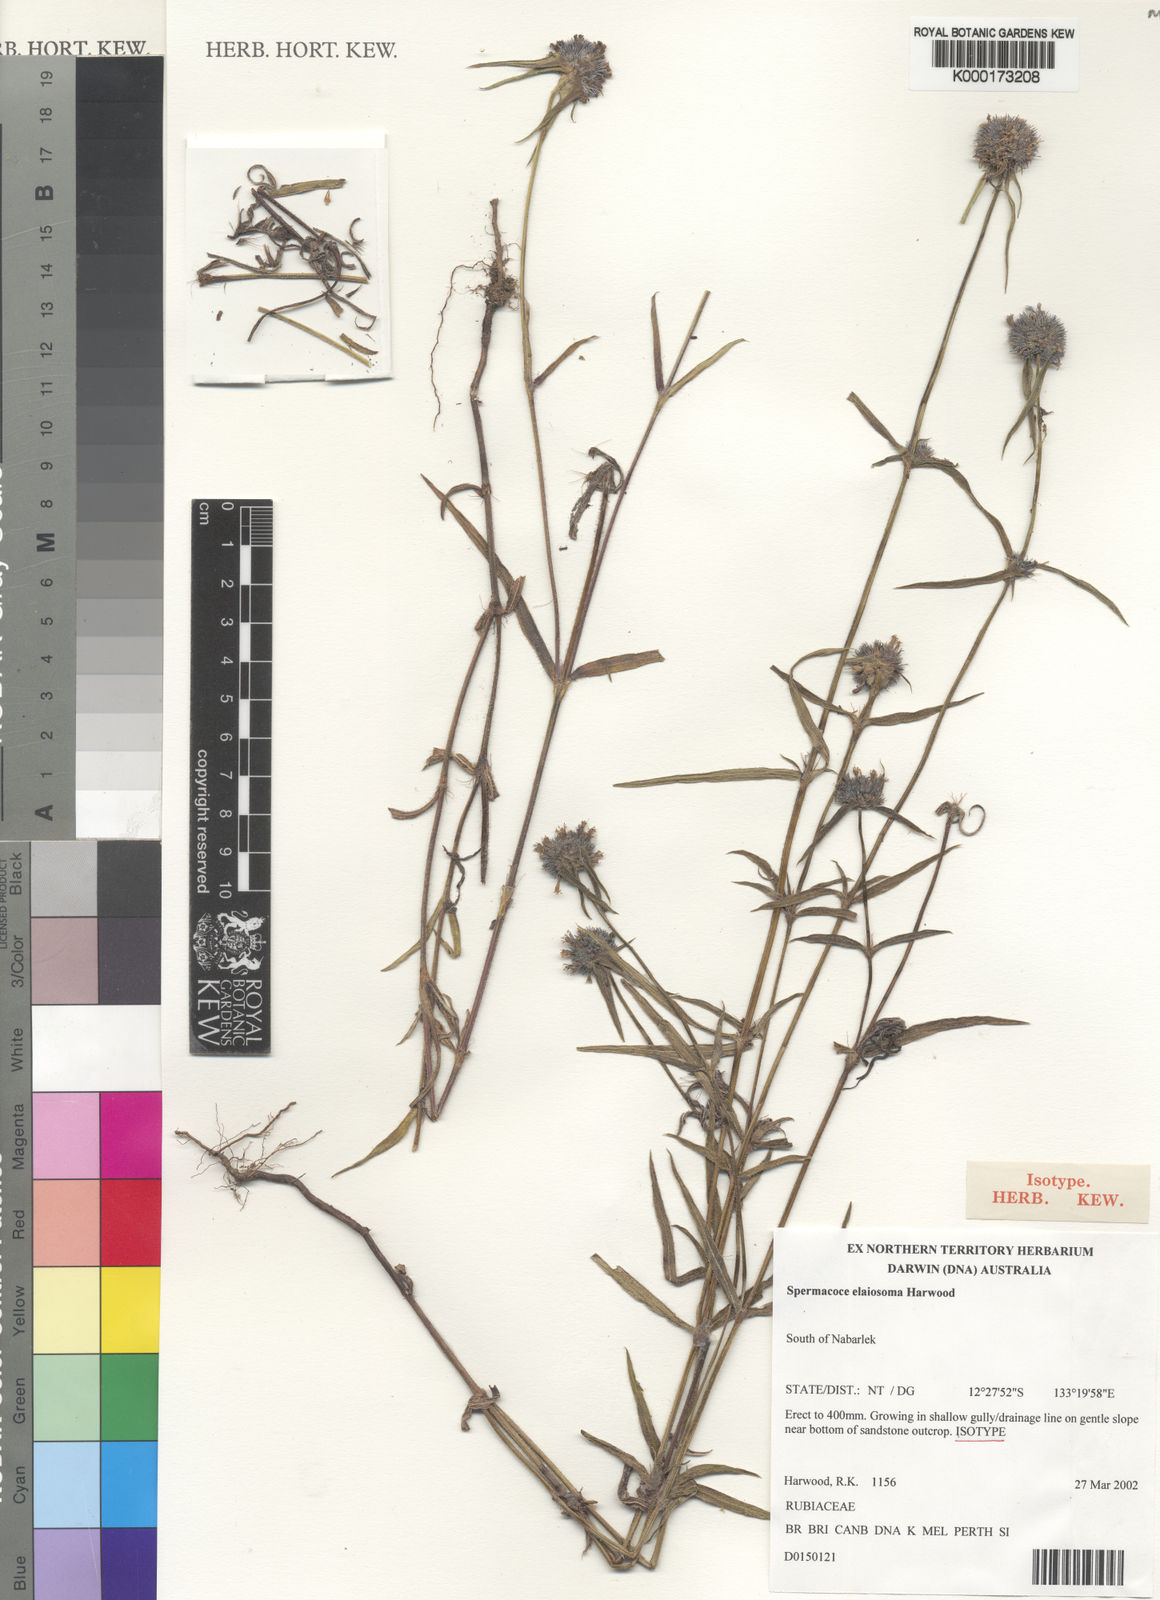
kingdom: Plantae
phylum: Tracheophyta
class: Magnoliopsida
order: Gentianales
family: Rubiaceae
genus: Spermacoce
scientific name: Spermacoce elaiosoma
